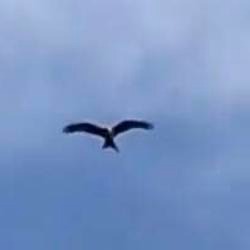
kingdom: Animalia
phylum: Chordata
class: Aves
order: Accipitriformes
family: Accipitridae
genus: Milvus
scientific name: Milvus milvus
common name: Rød glente
